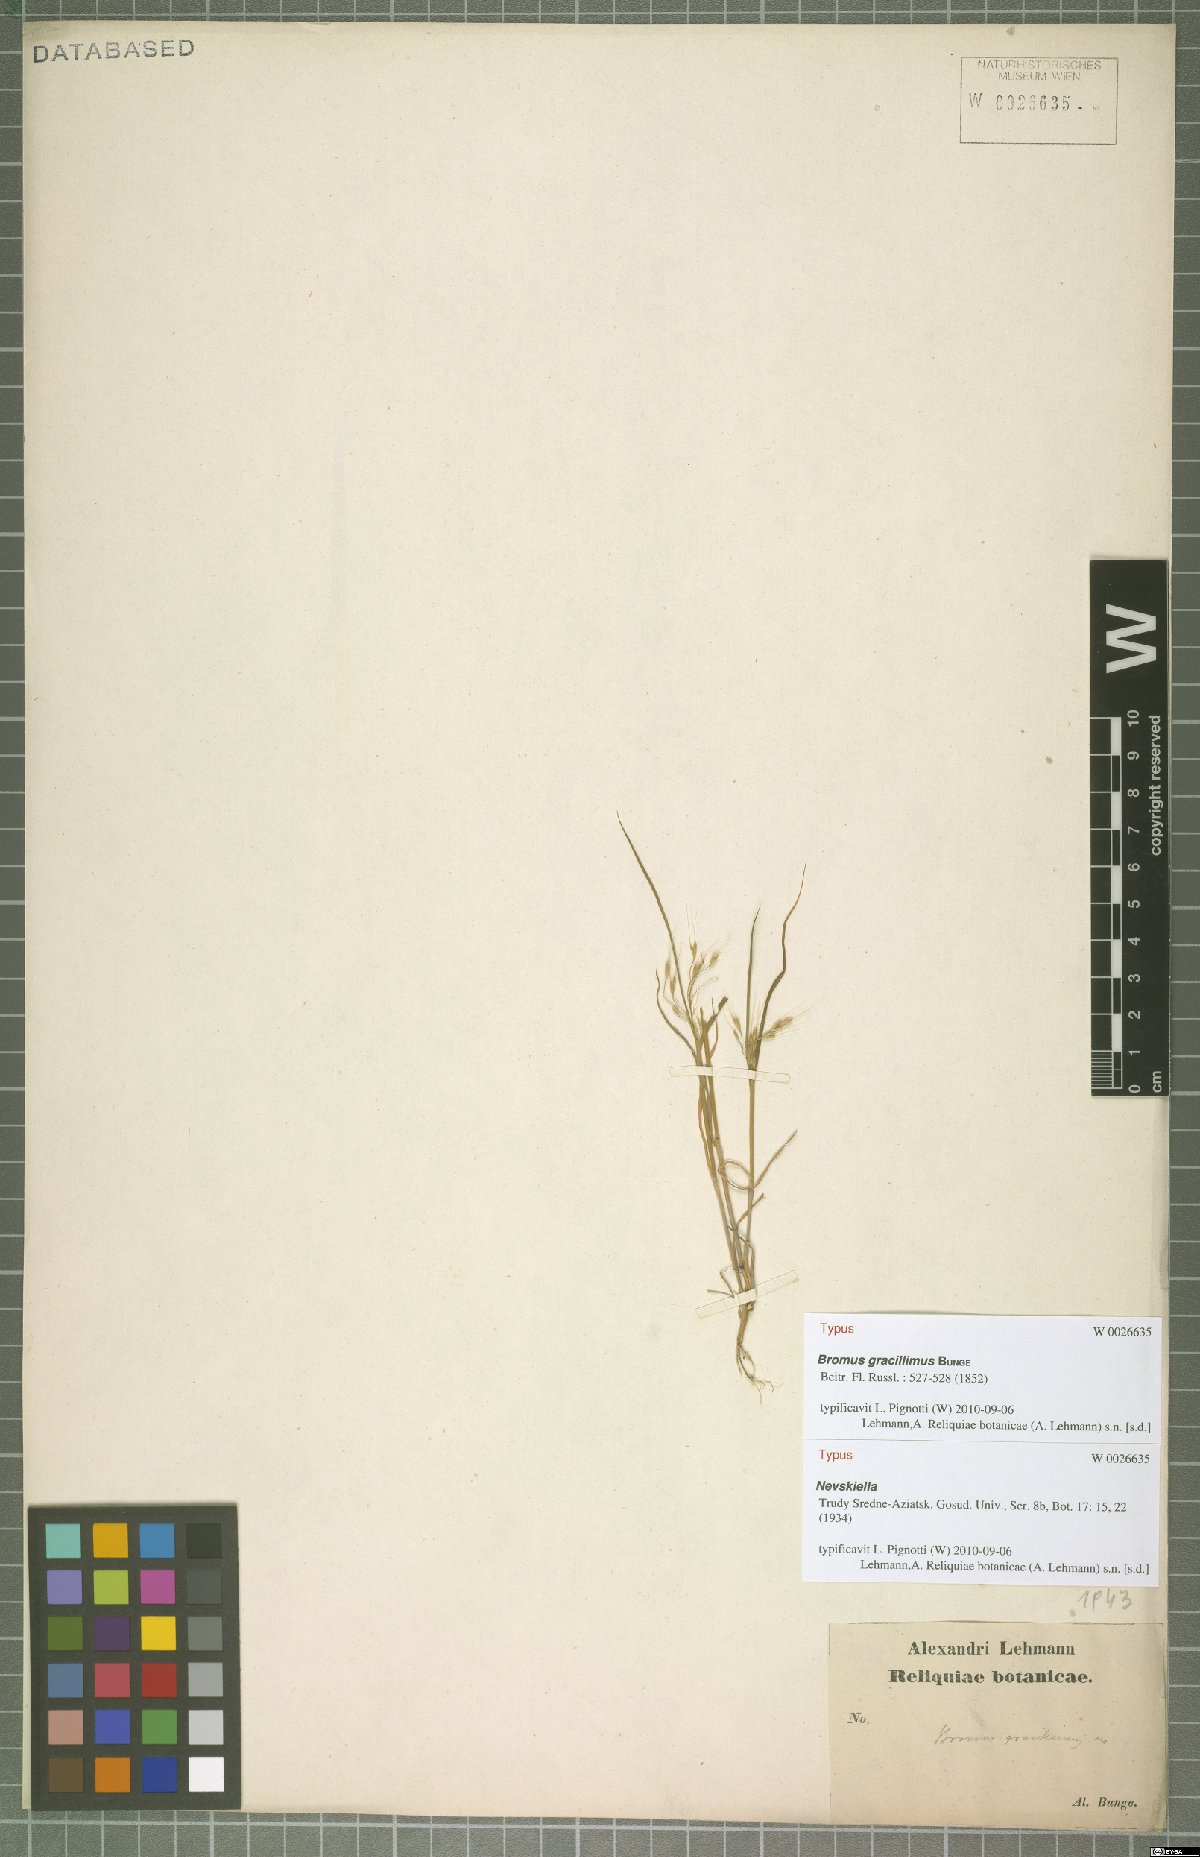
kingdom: Plantae
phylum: Tracheophyta
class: Liliopsida
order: Poales
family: Poaceae
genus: Bromus
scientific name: Bromus gracillimus
